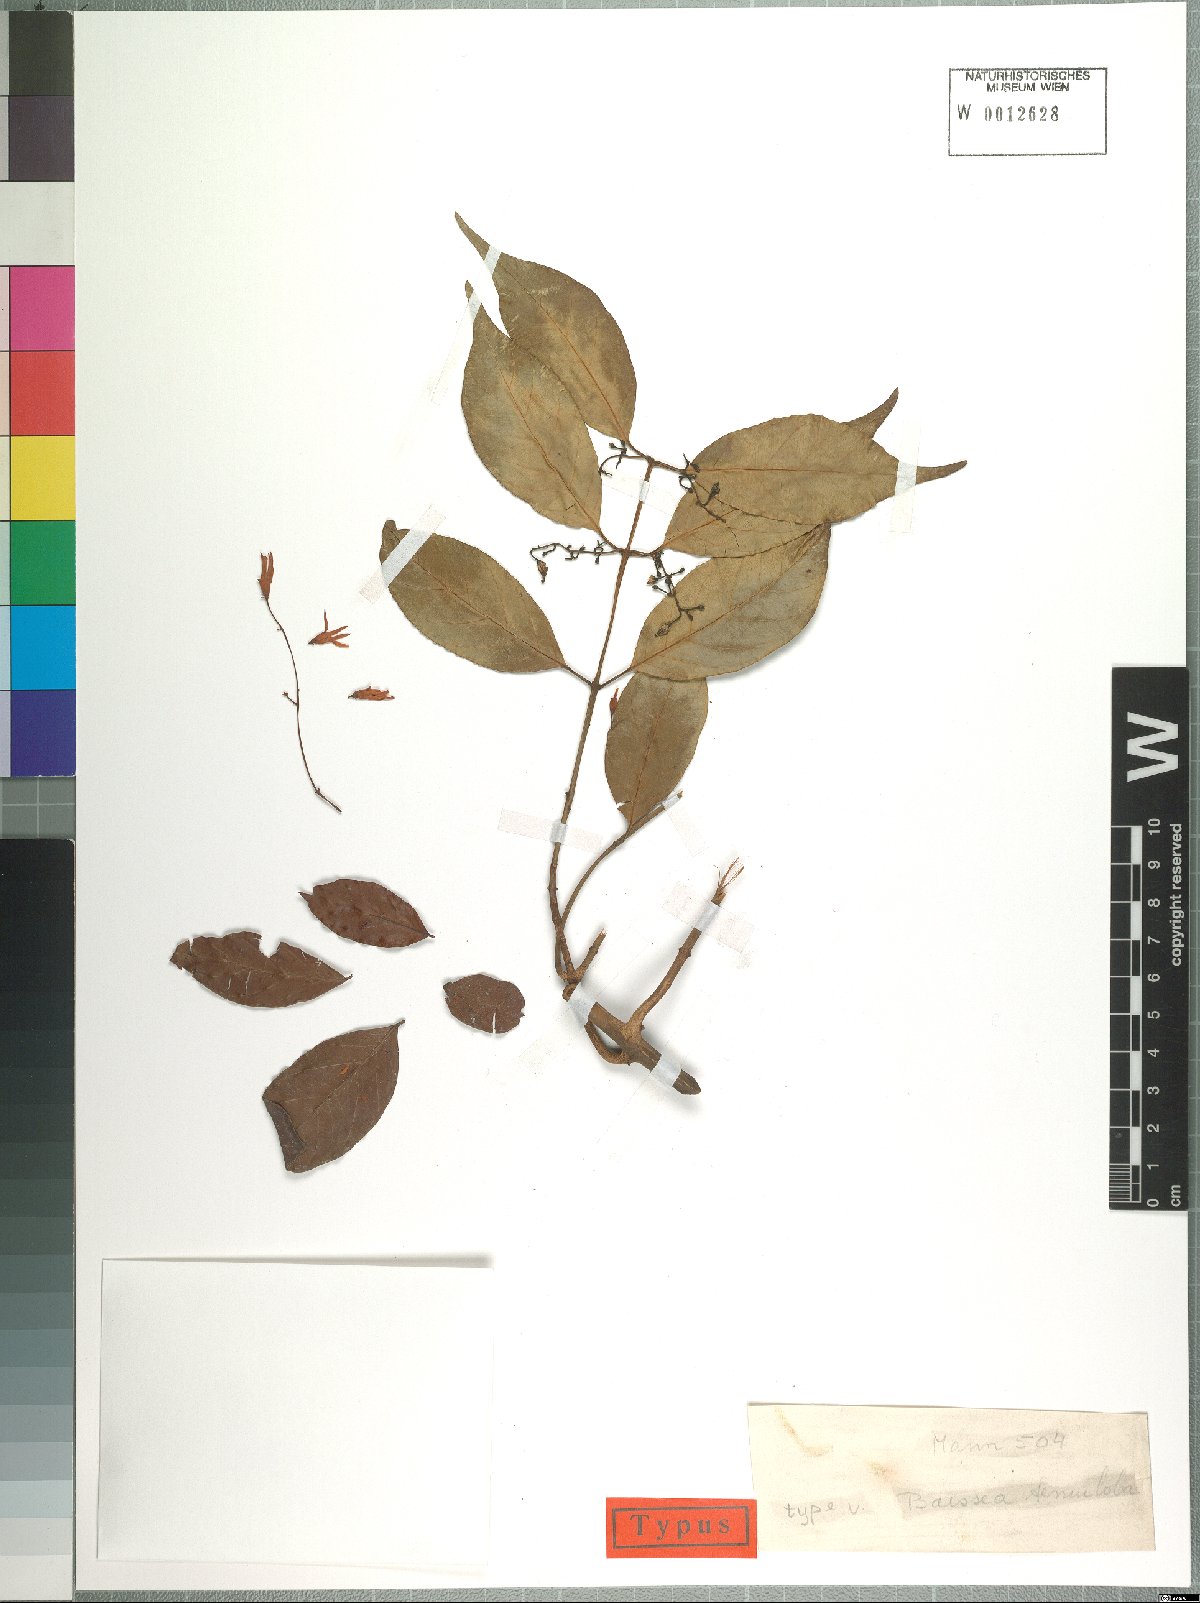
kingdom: Plantae
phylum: Tracheophyta
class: Magnoliopsida
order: Gentianales
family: Apocynaceae
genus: Baissea
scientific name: Baissea leonensis
